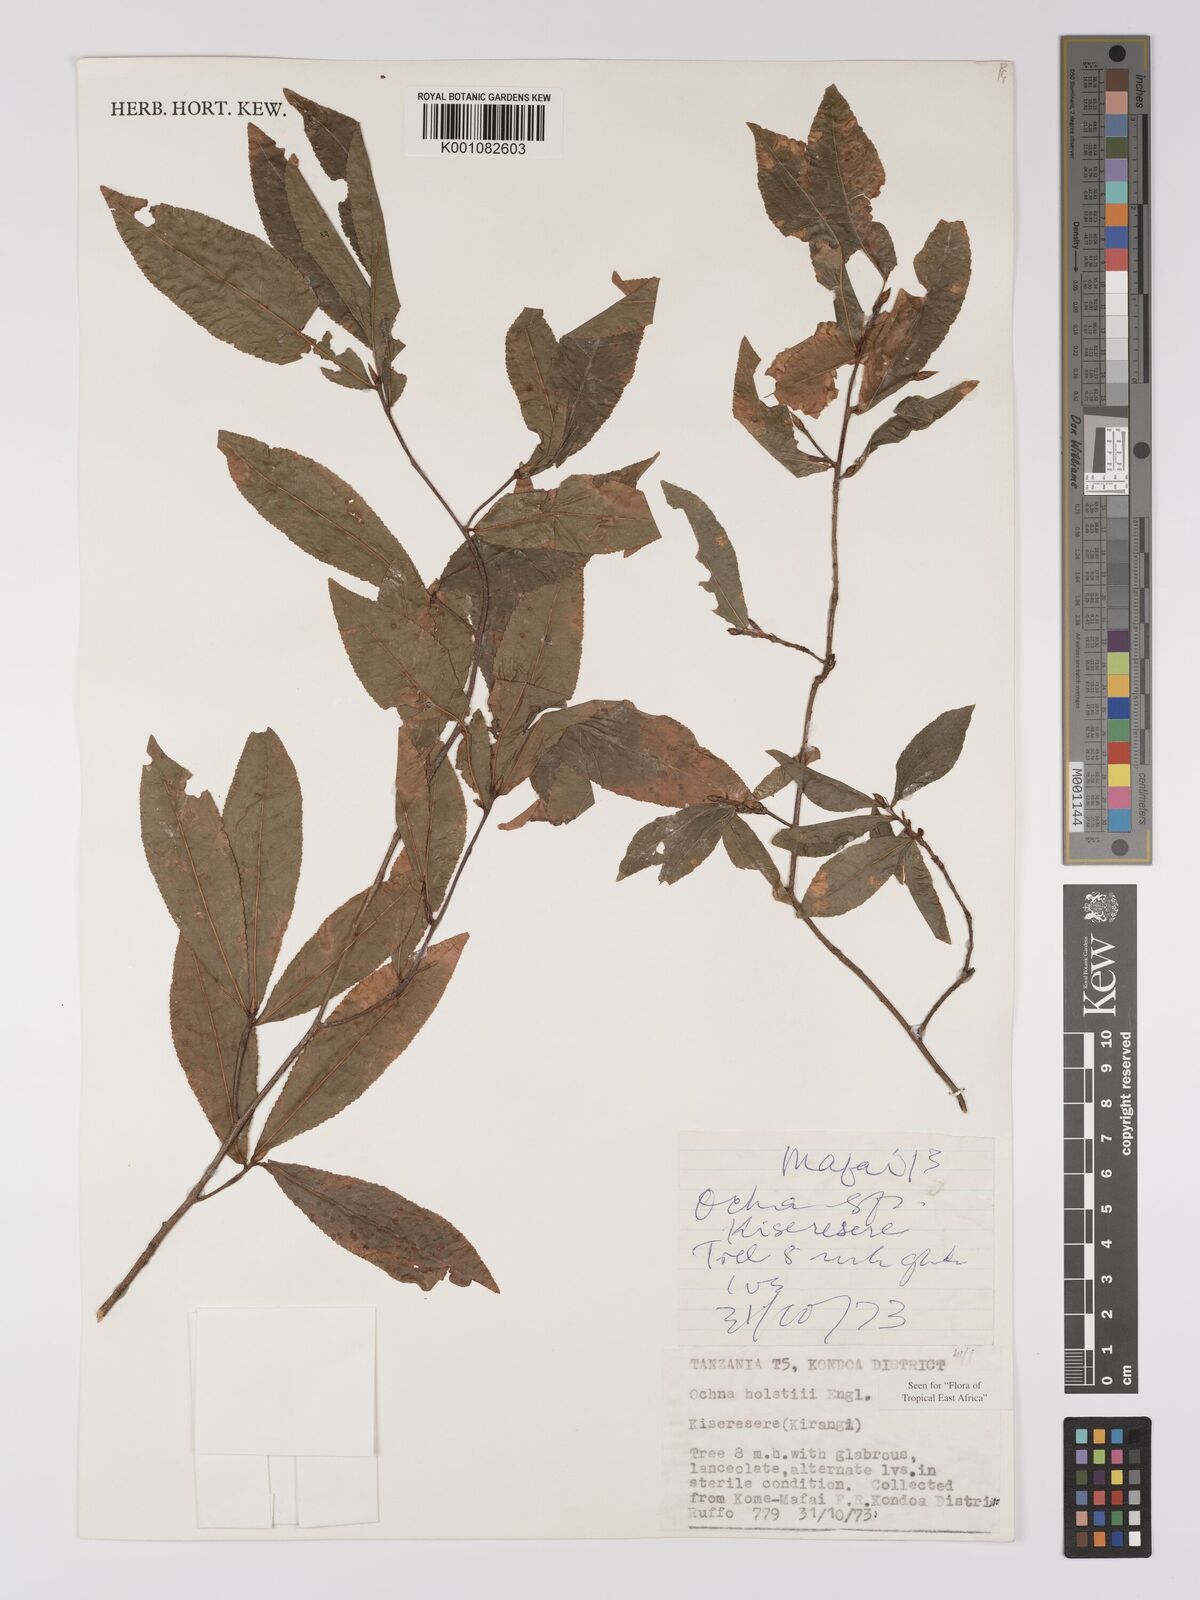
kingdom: Plantae
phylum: Tracheophyta
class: Magnoliopsida
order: Malpighiales
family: Ochnaceae
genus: Ochna
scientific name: Ochna holstii
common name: Red ironwood
